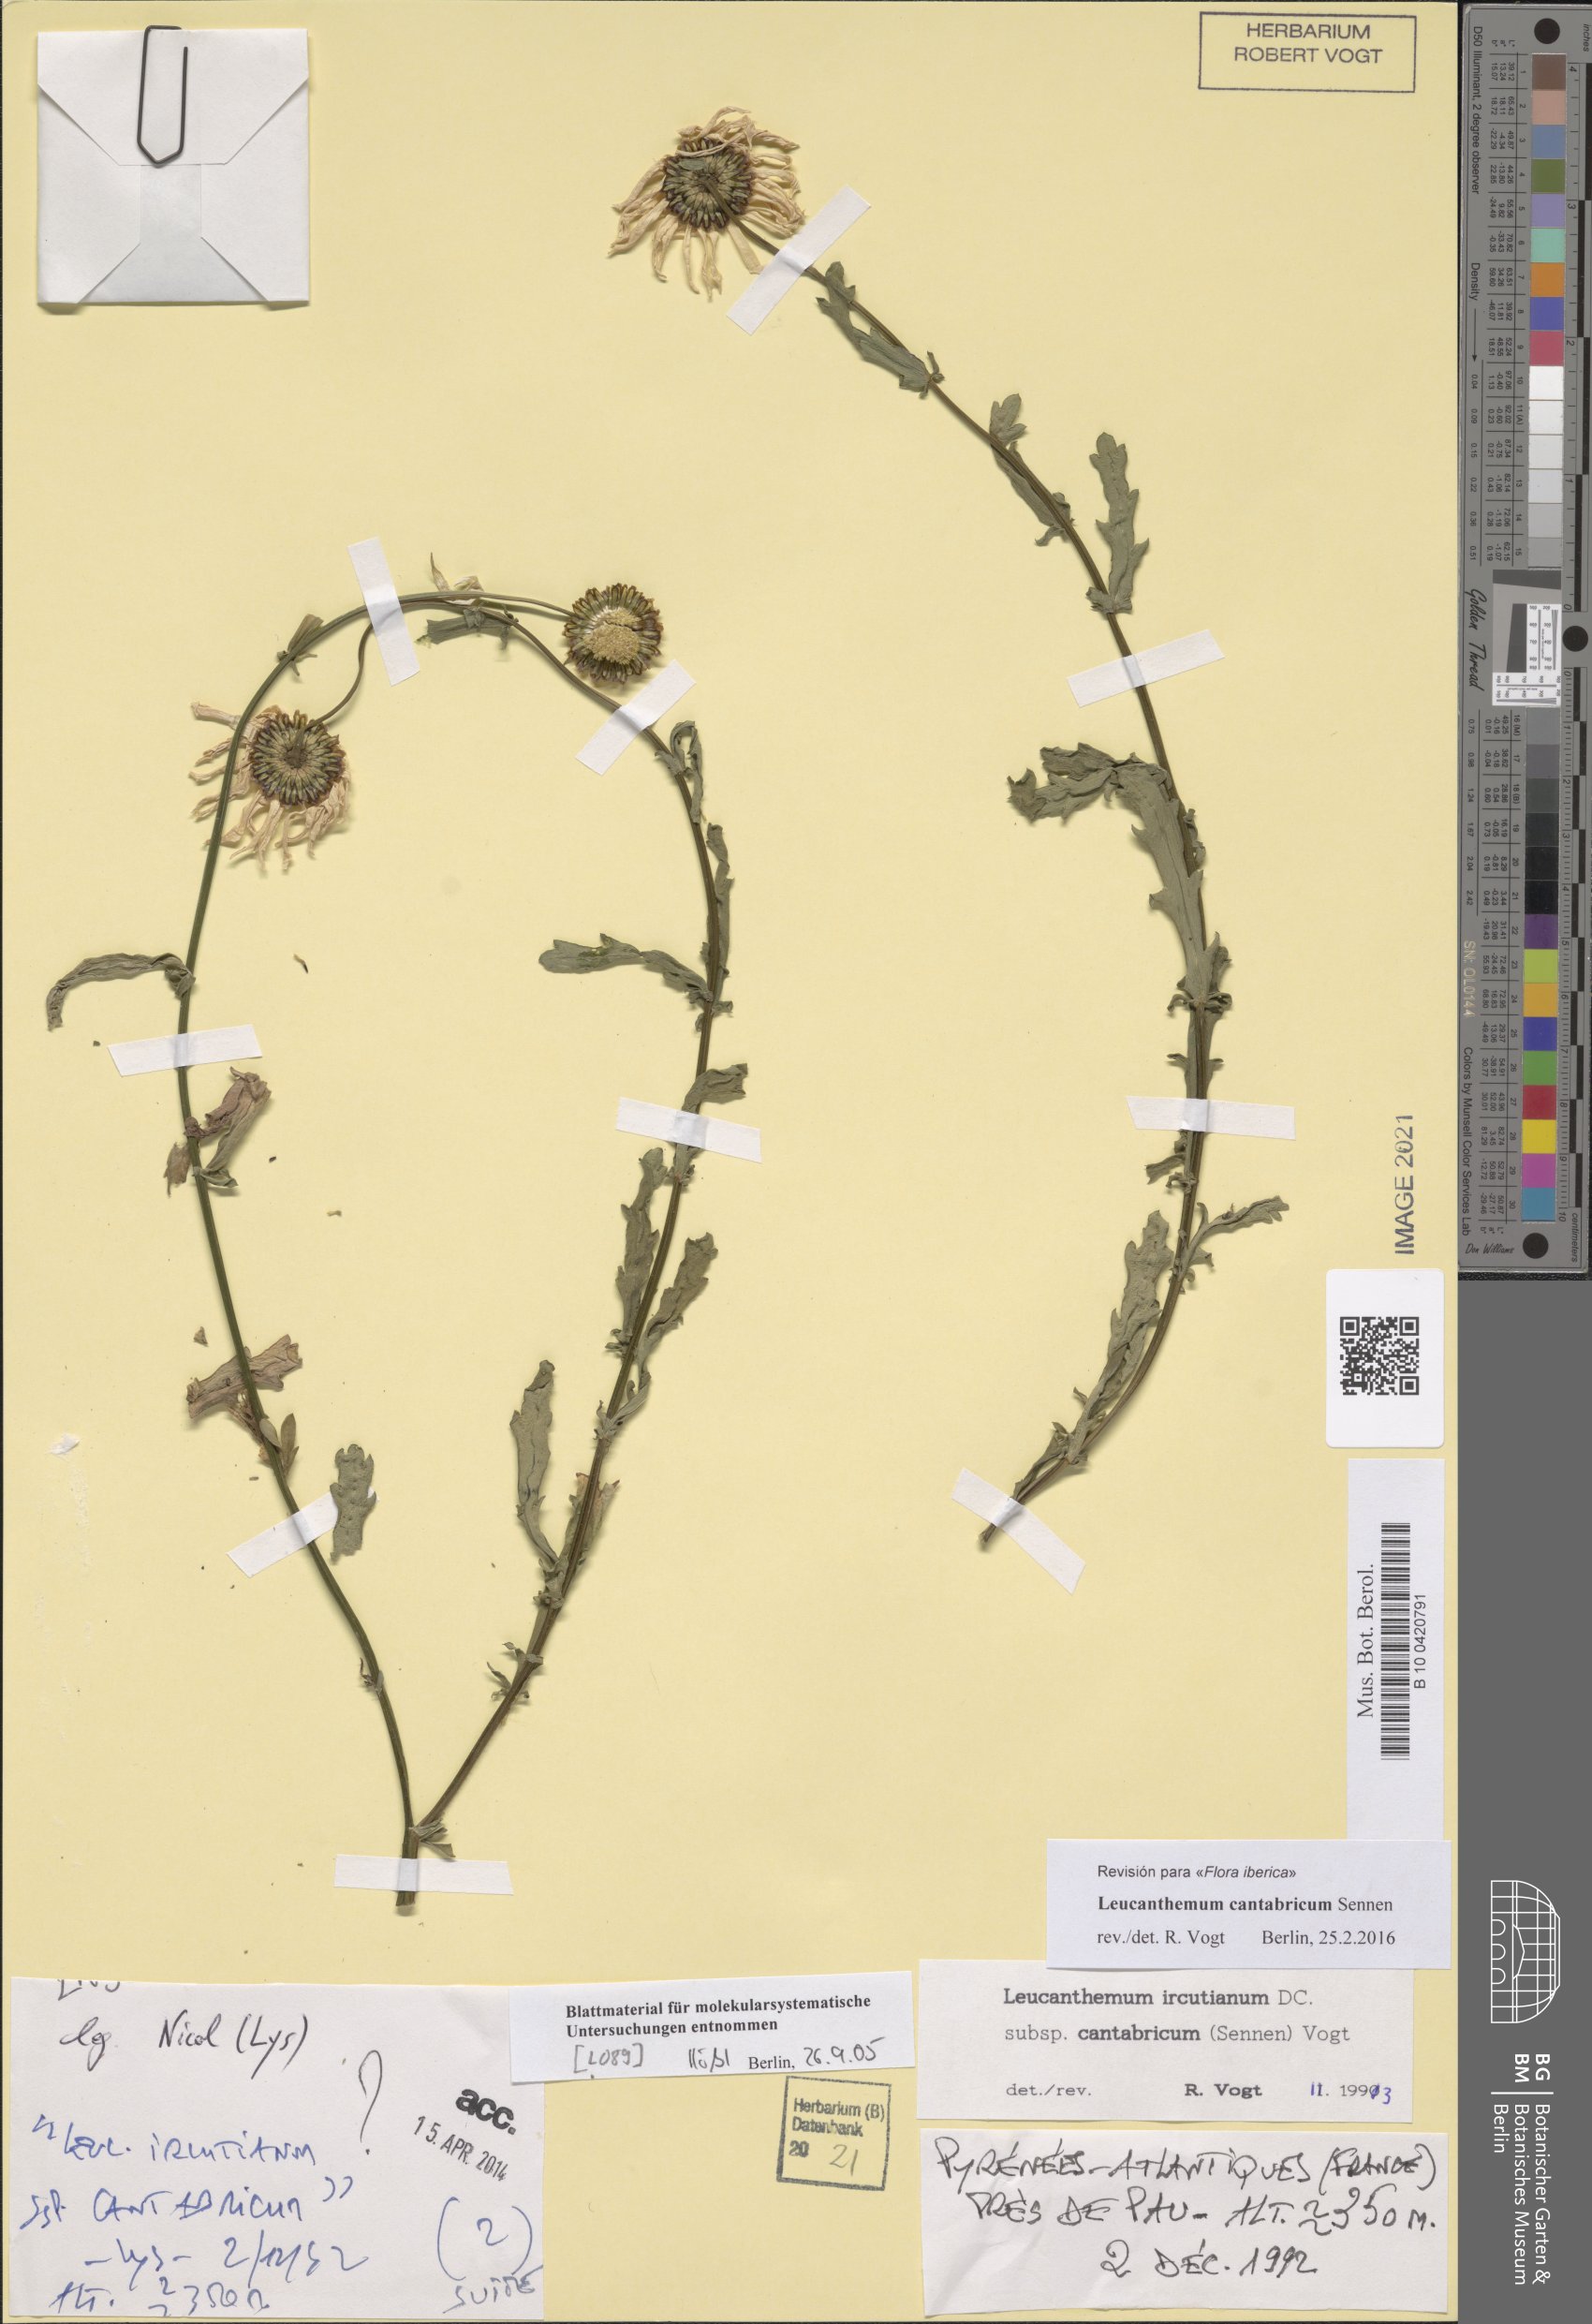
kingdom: Plantae
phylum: Tracheophyta
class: Magnoliopsida
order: Asterales
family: Asteraceae
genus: Leucanthemum
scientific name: Leucanthemum cantabricum
